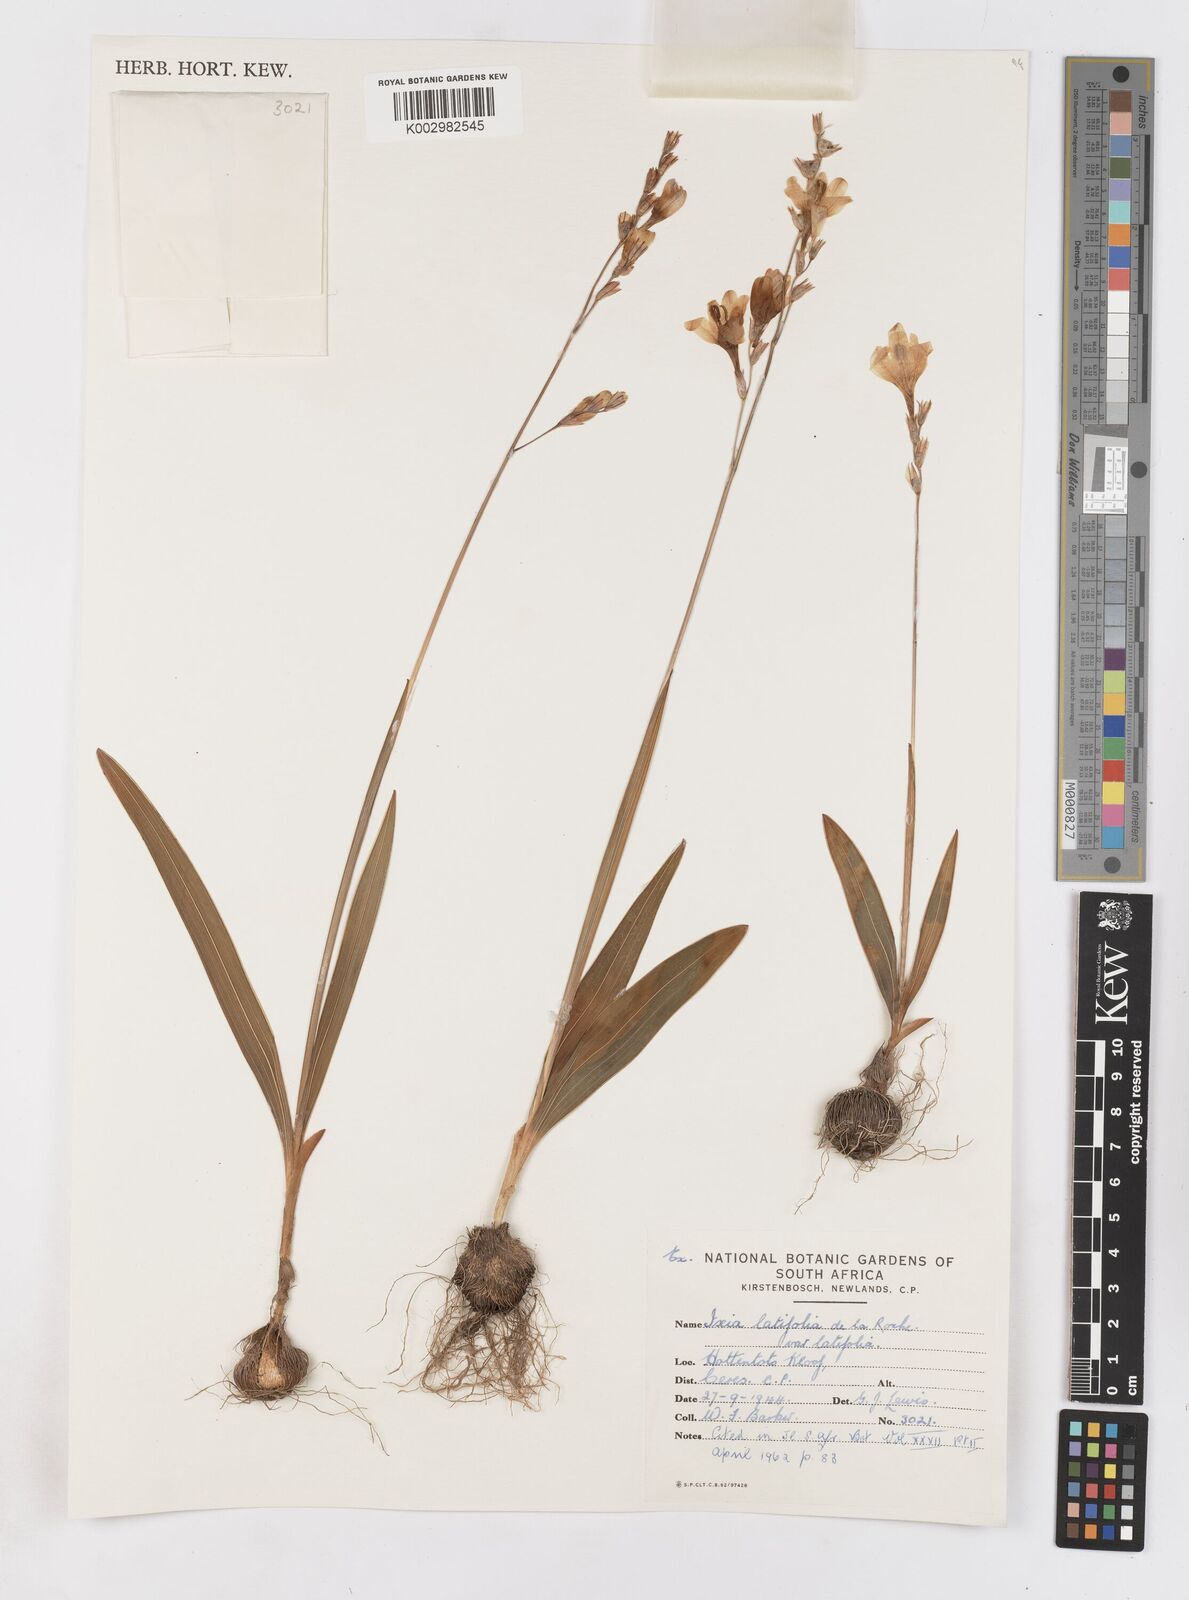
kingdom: Plantae
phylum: Tracheophyta
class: Liliopsida
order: Asparagales
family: Iridaceae
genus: Ixia
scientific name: Ixia latifolia
